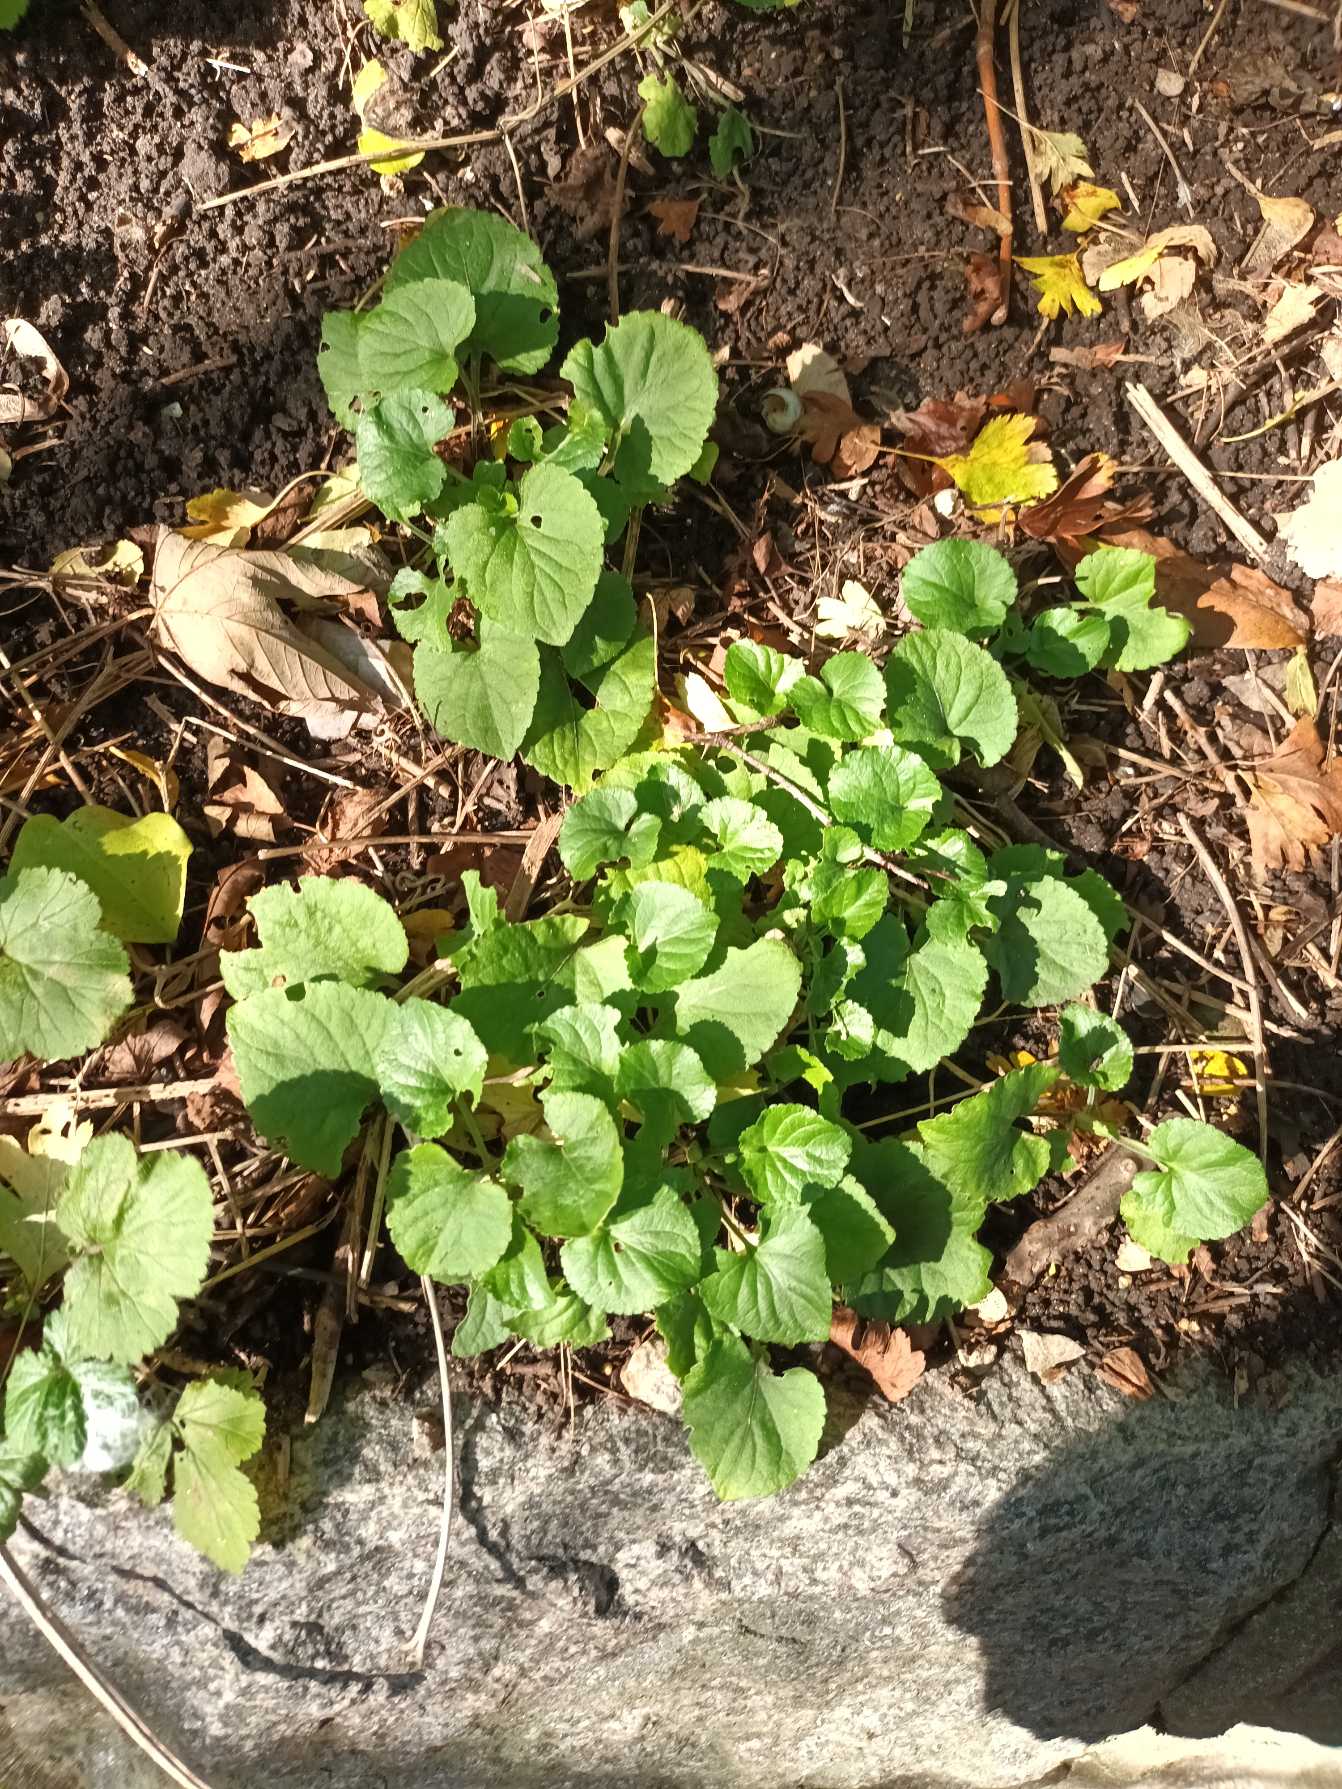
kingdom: Plantae
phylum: Tracheophyta
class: Magnoliopsida
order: Malpighiales
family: Violaceae
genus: Viola
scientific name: Viola odorata
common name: Marts-viol
